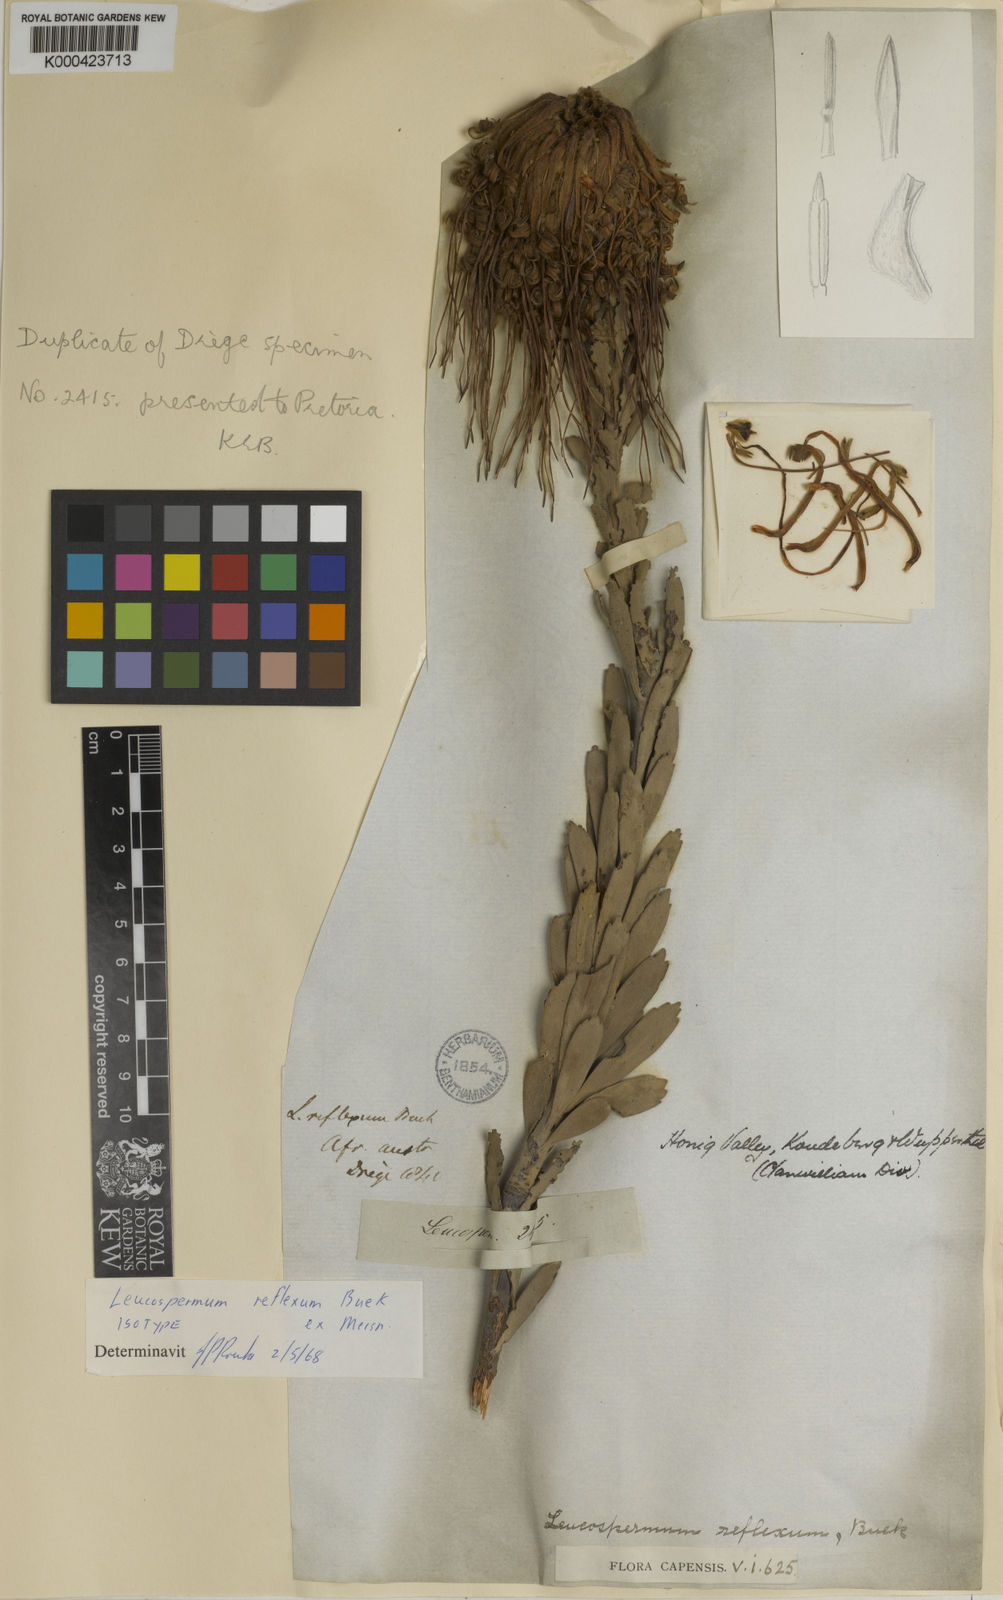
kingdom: Plantae
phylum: Tracheophyta
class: Magnoliopsida
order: Proteales
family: Proteaceae
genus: Leucospermum
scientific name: Leucospermum reflexum
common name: Rocket pincushion
